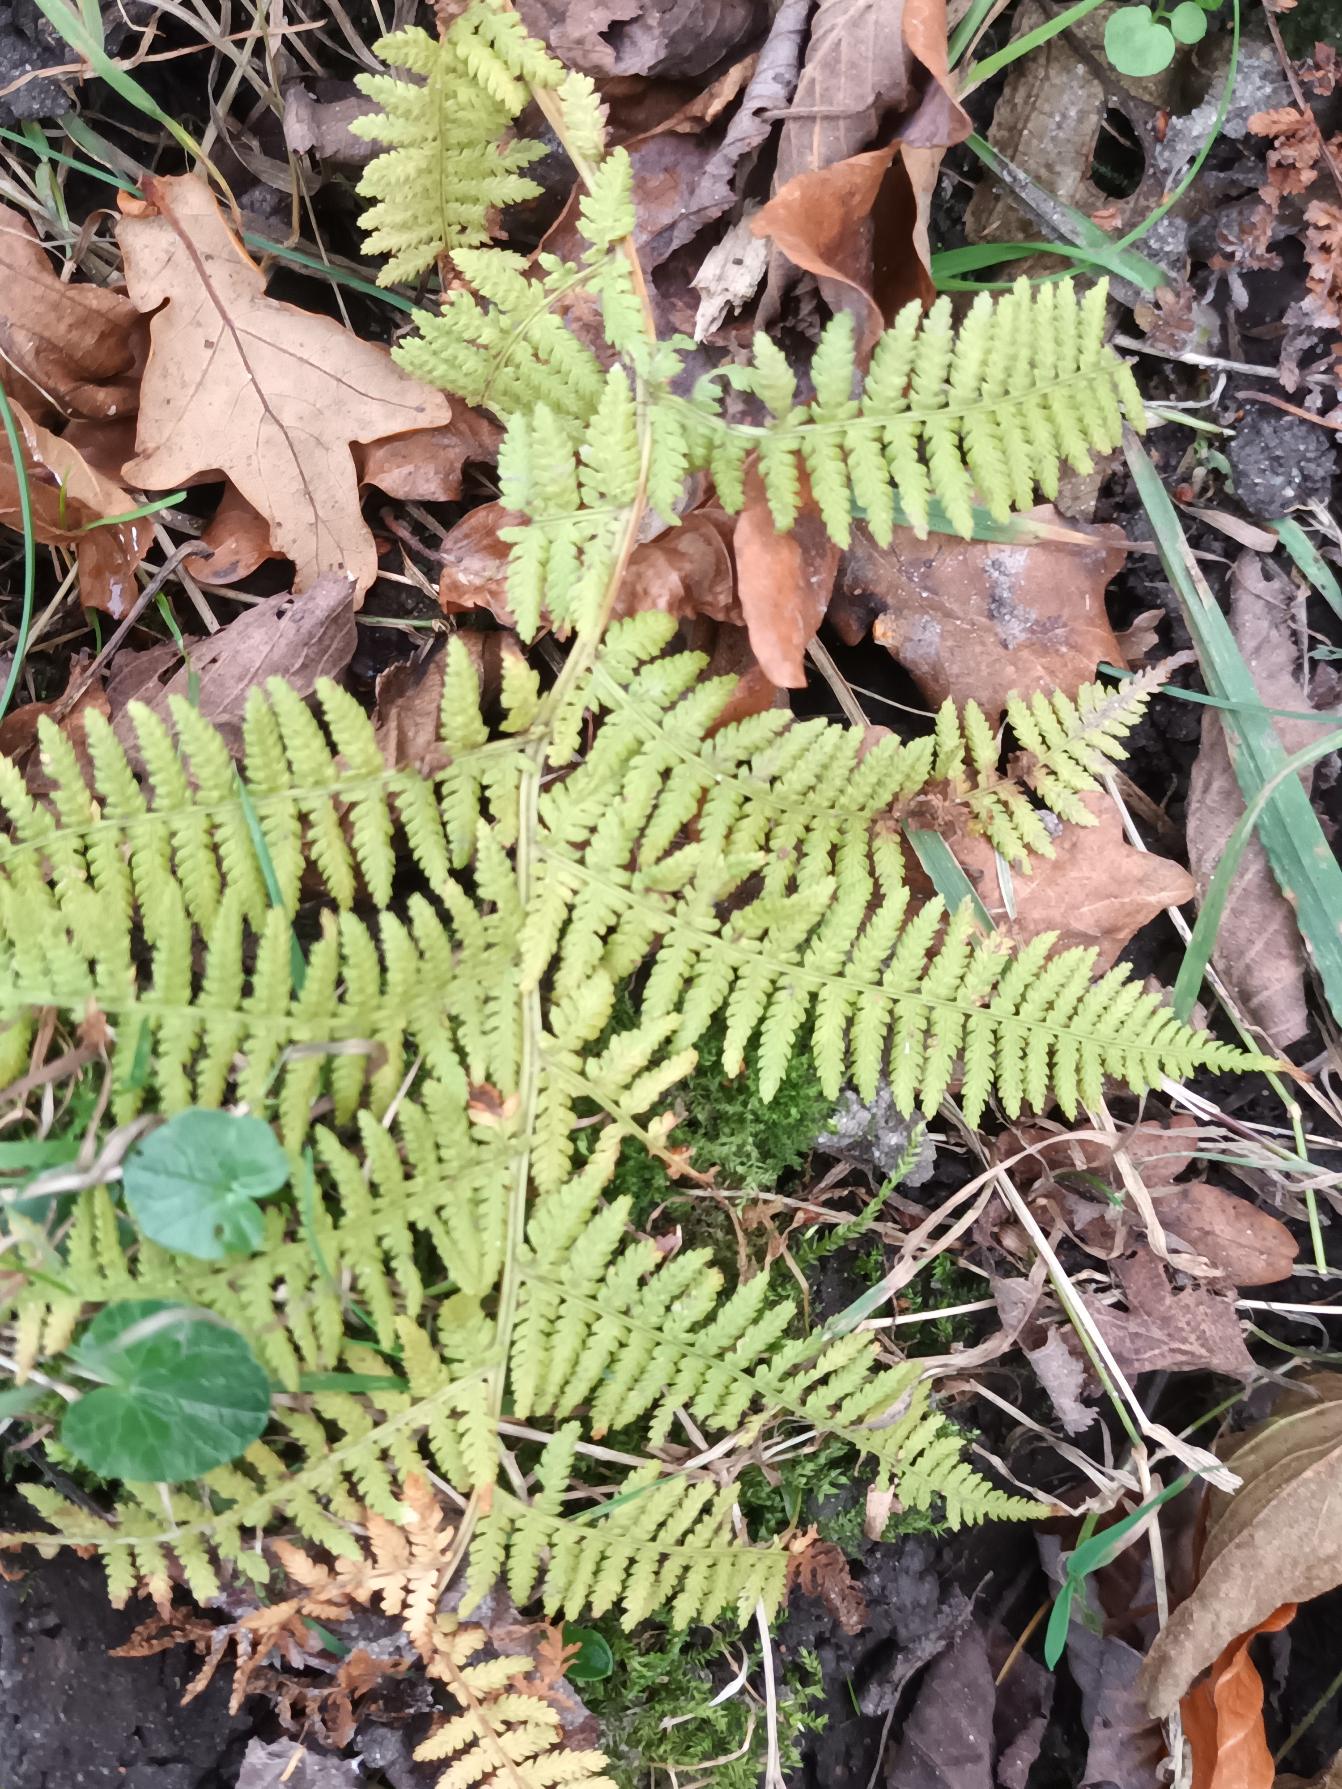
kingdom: Plantae
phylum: Tracheophyta
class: Polypodiopsida
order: Polypodiales
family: Athyriaceae
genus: Athyrium
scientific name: Athyrium filix-femina
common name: Fjerbregne
